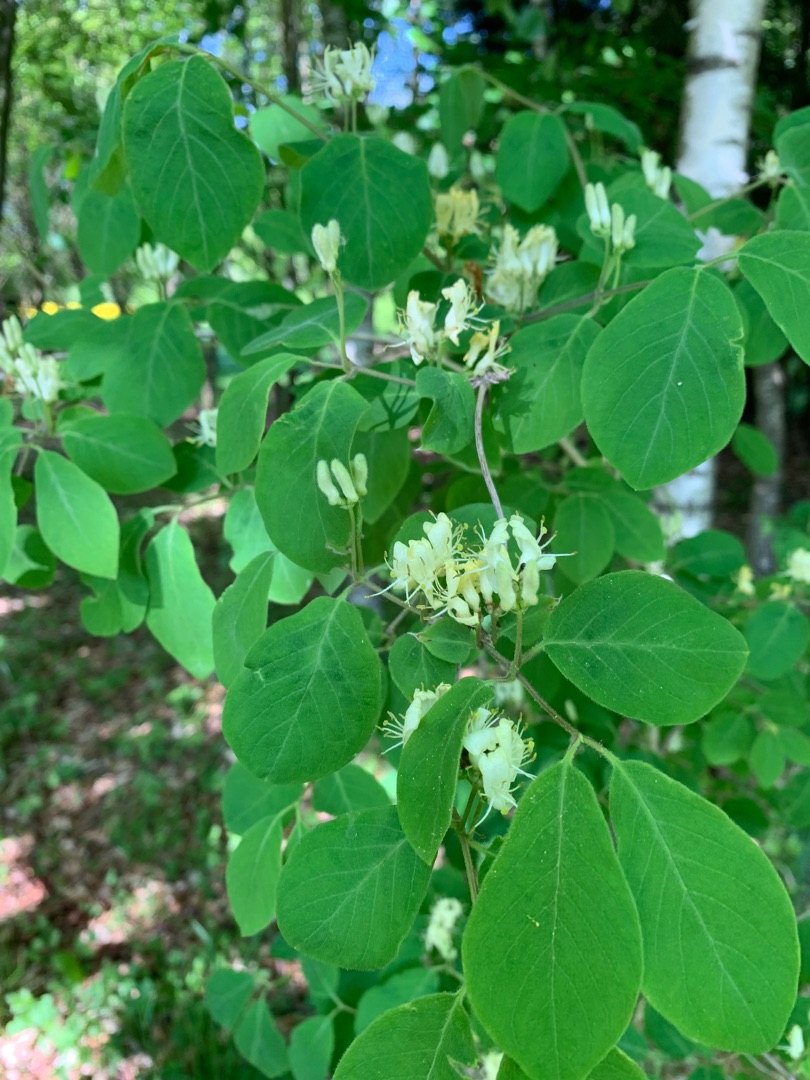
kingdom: Plantae
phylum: Tracheophyta
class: Magnoliopsida
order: Dipsacales
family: Caprifoliaceae
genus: Lonicera
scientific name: Lonicera xylosteum
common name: Dunet gedeblad
